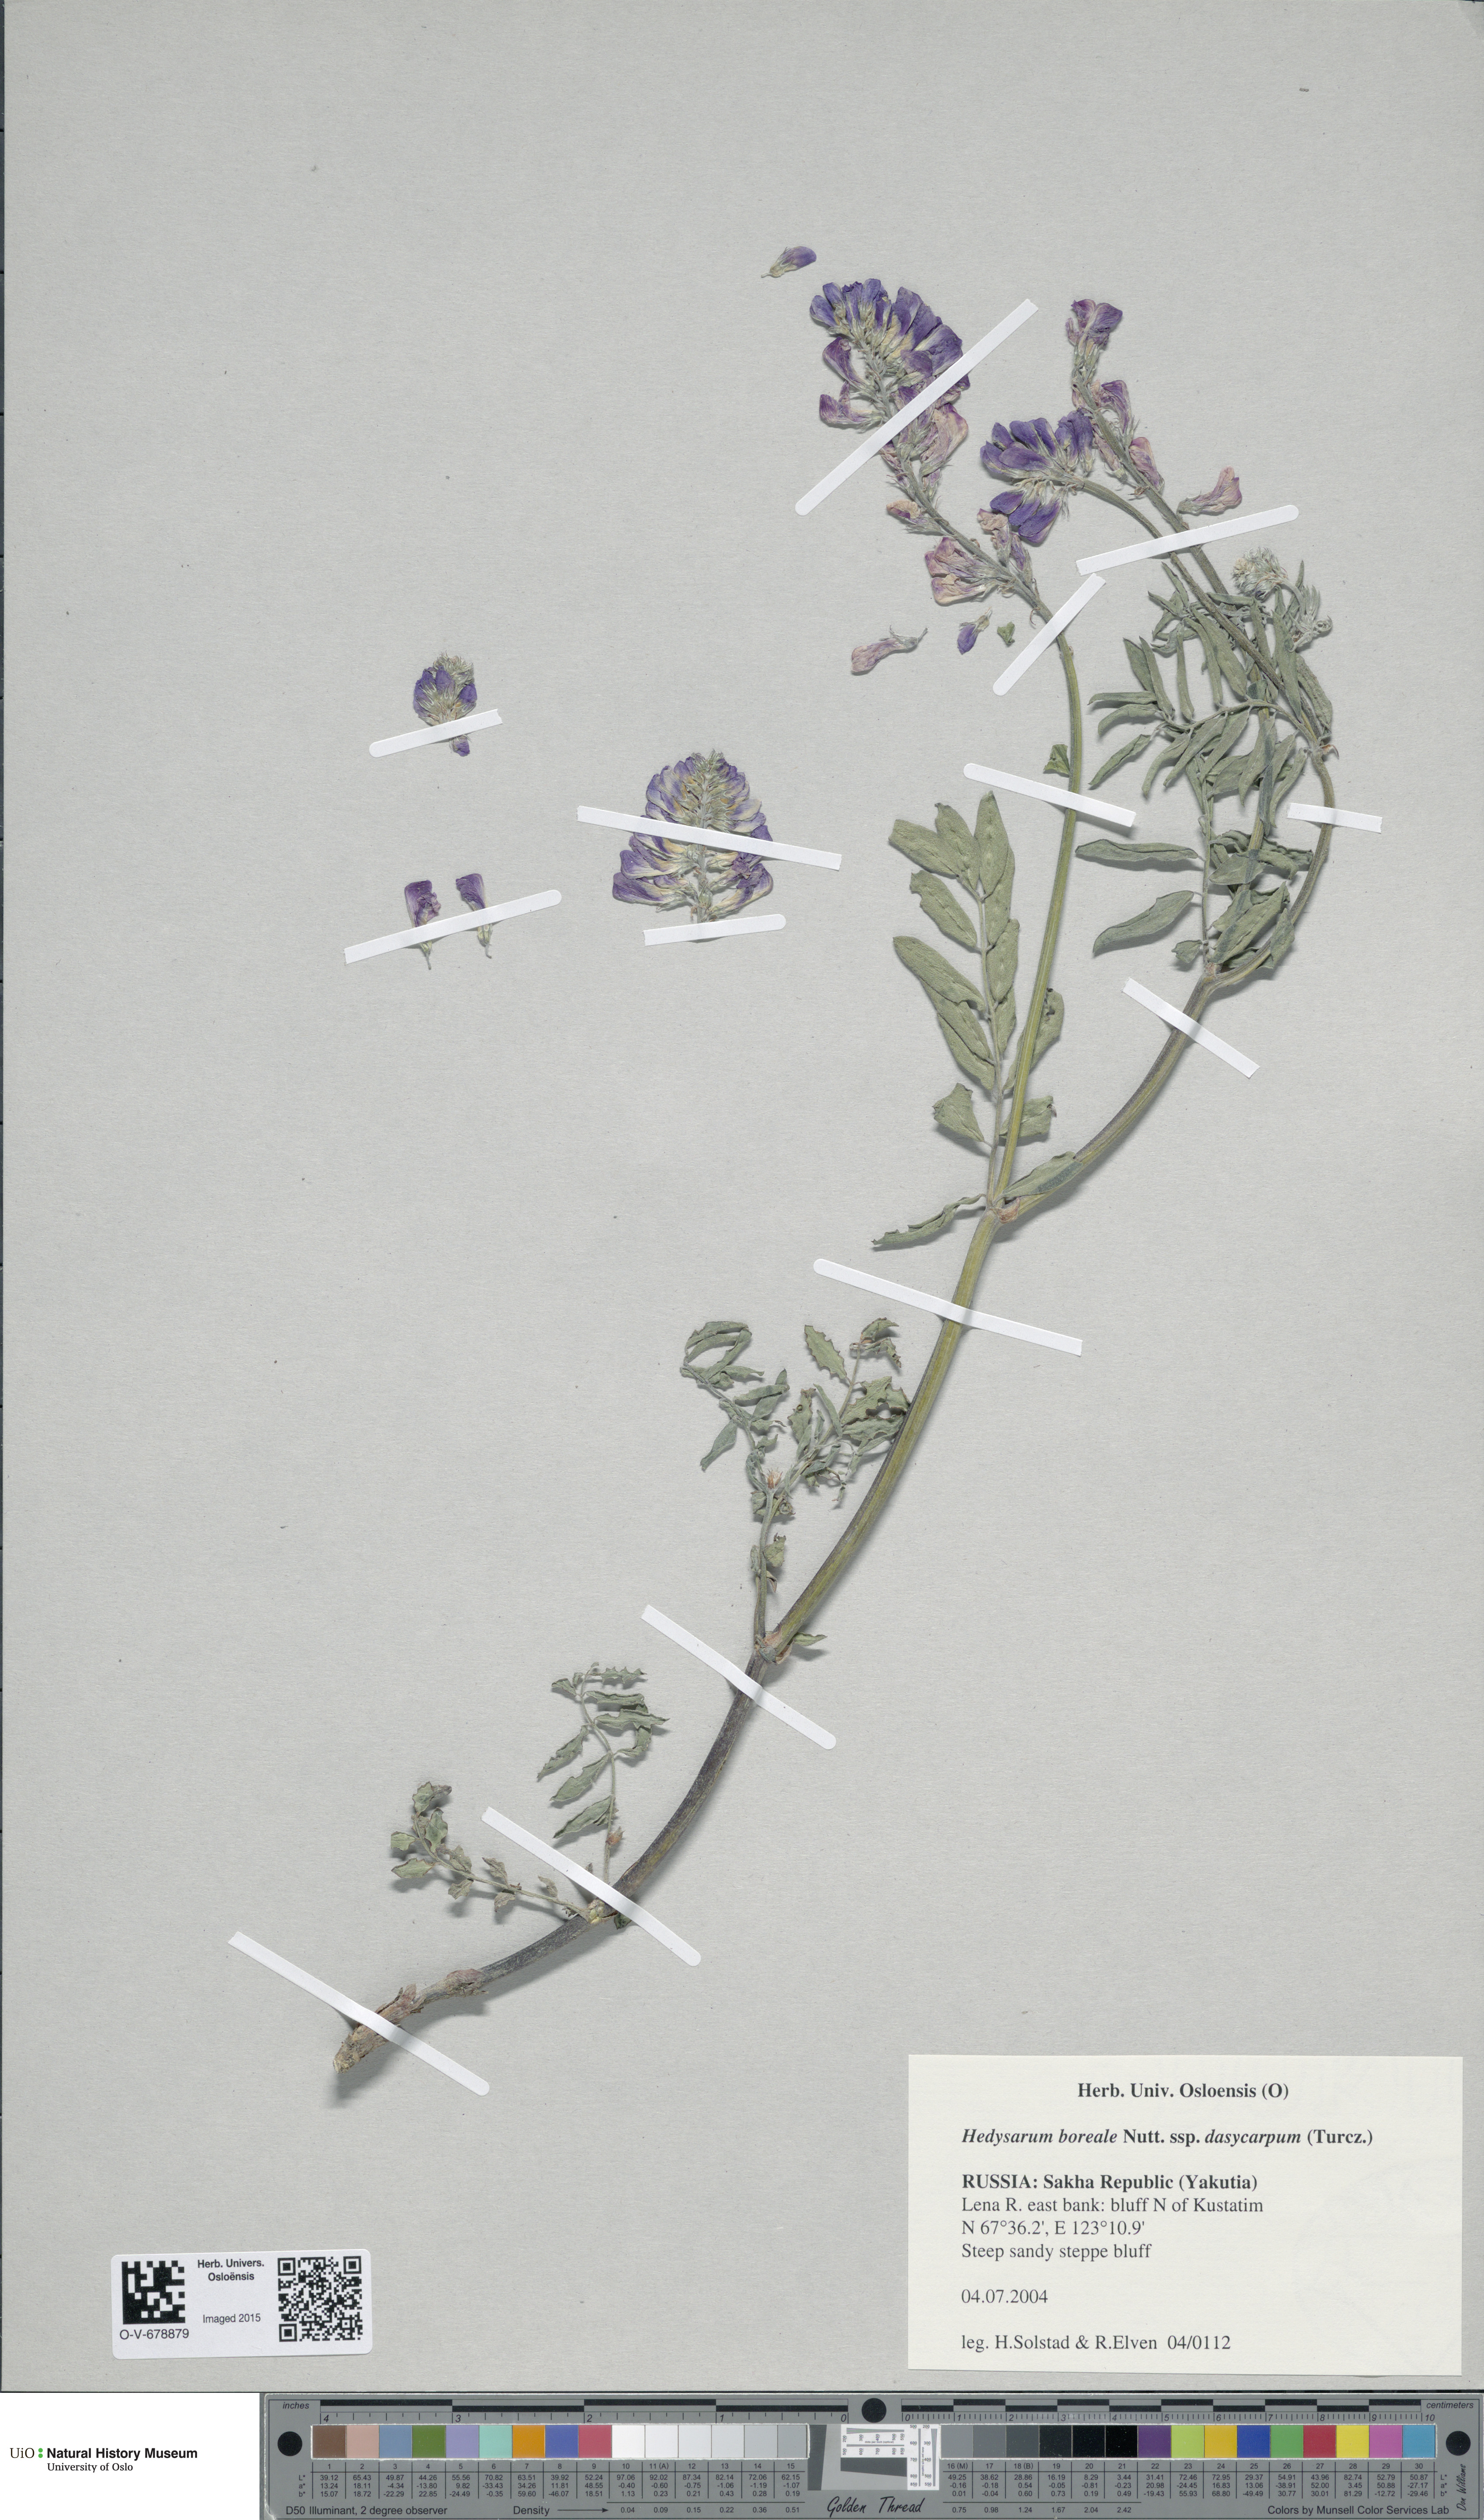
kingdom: Plantae
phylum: Tracheophyta
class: Magnoliopsida
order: Fabales
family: Fabaceae
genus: Hedysarum
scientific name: Hedysarum dasycarpum
